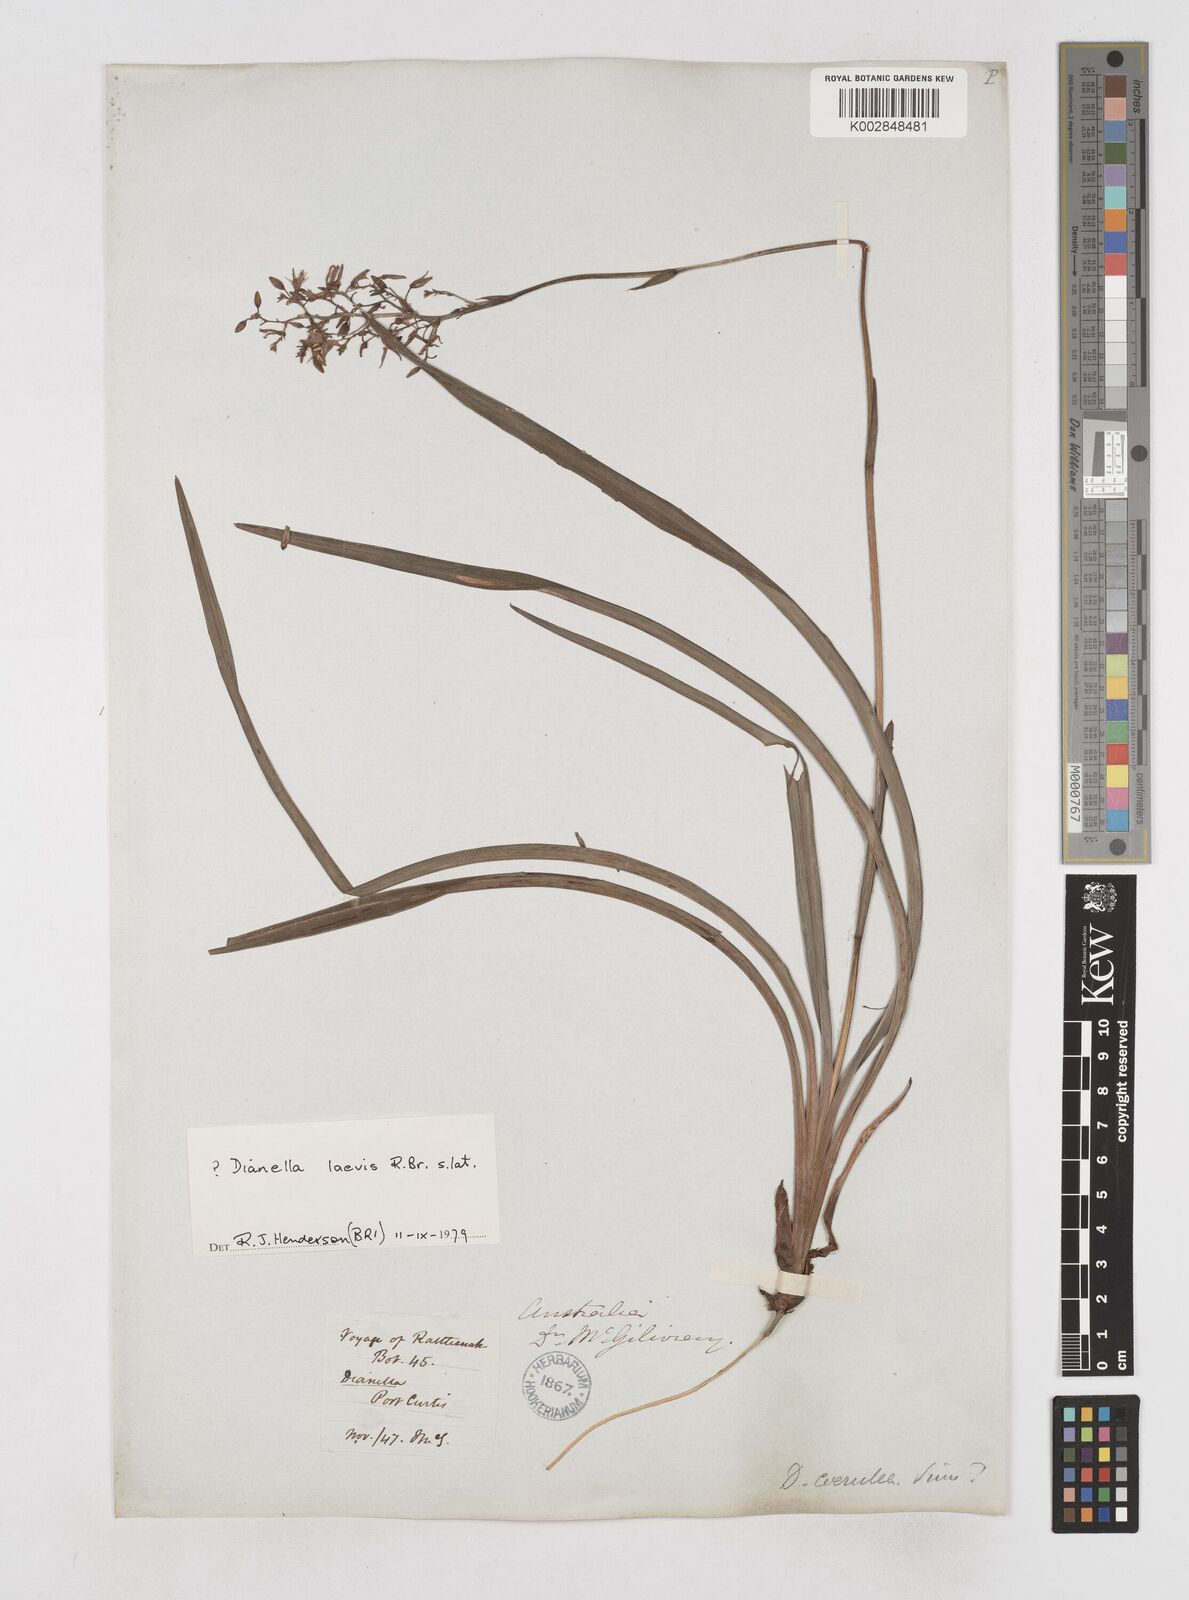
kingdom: Plantae
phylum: Tracheophyta
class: Liliopsida
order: Asparagales
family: Asphodelaceae
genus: Dianella
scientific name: Dianella longifolia
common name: Blue flax-lily
